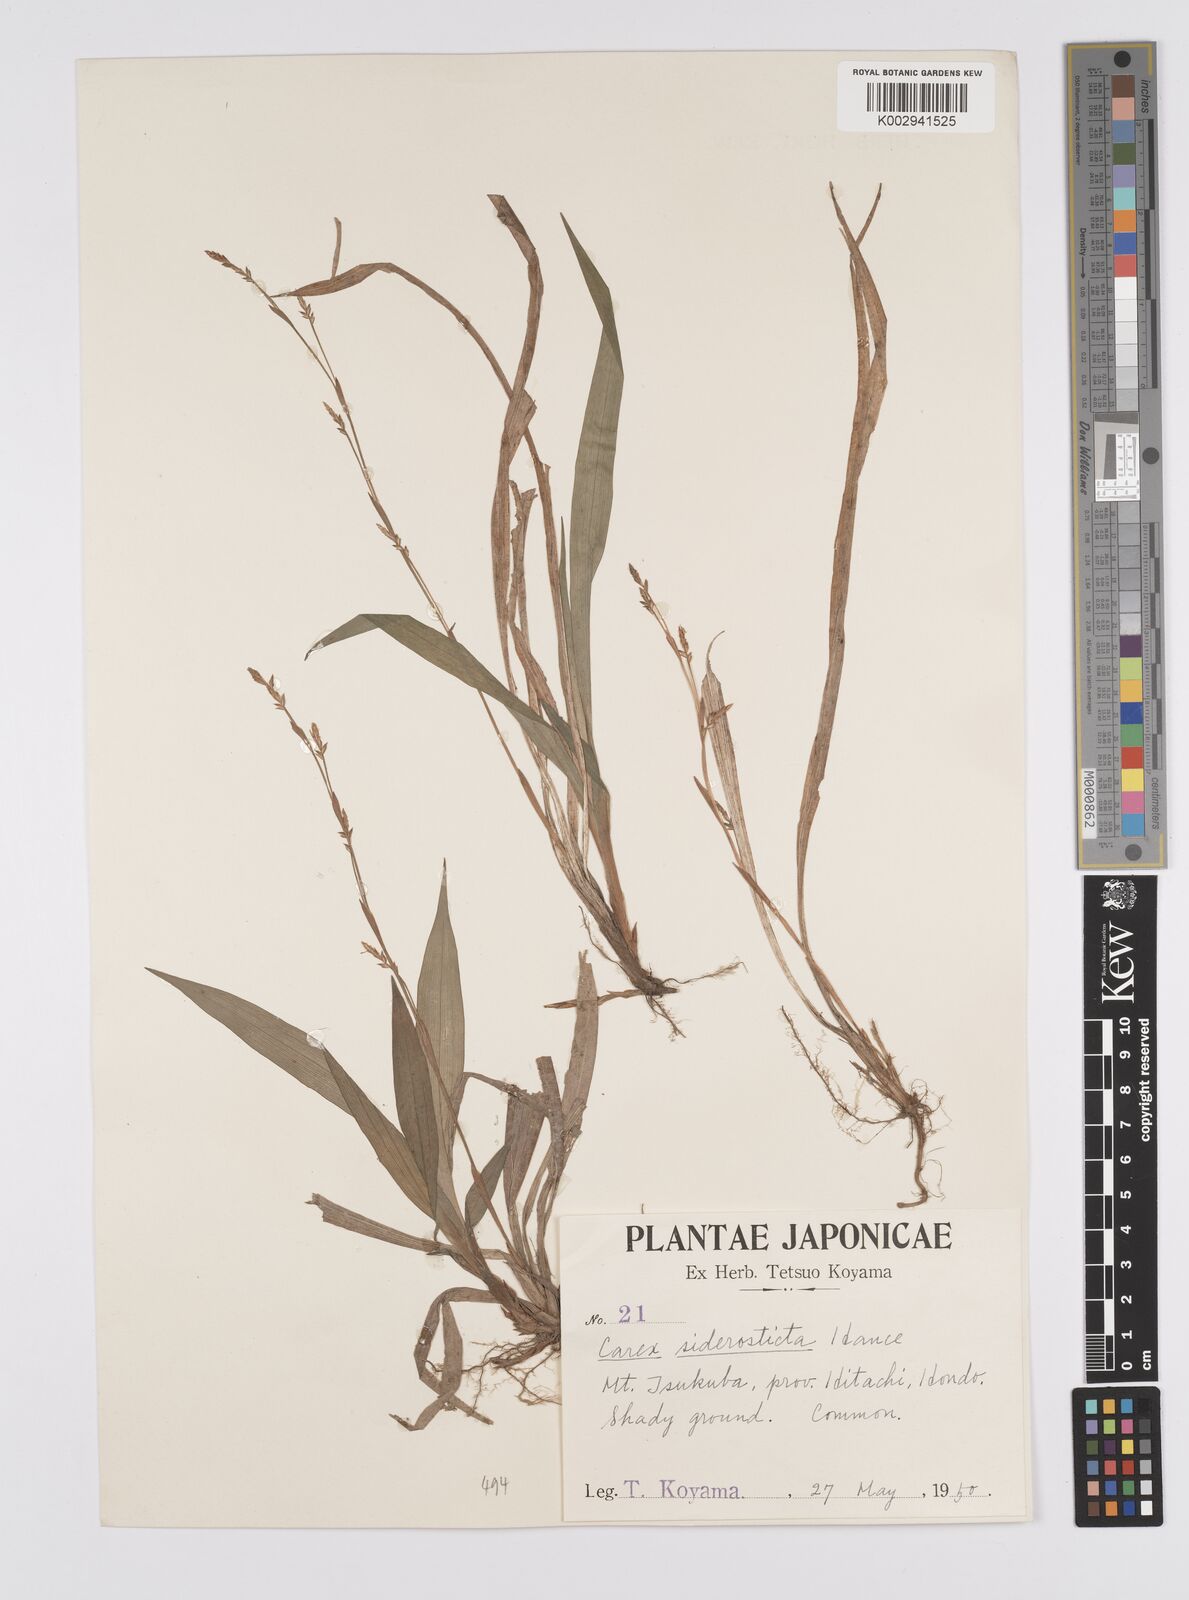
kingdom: Plantae
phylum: Tracheophyta
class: Liliopsida
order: Poales
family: Cyperaceae
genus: Carex
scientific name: Carex siderosticta
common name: Broadleaf sedge
